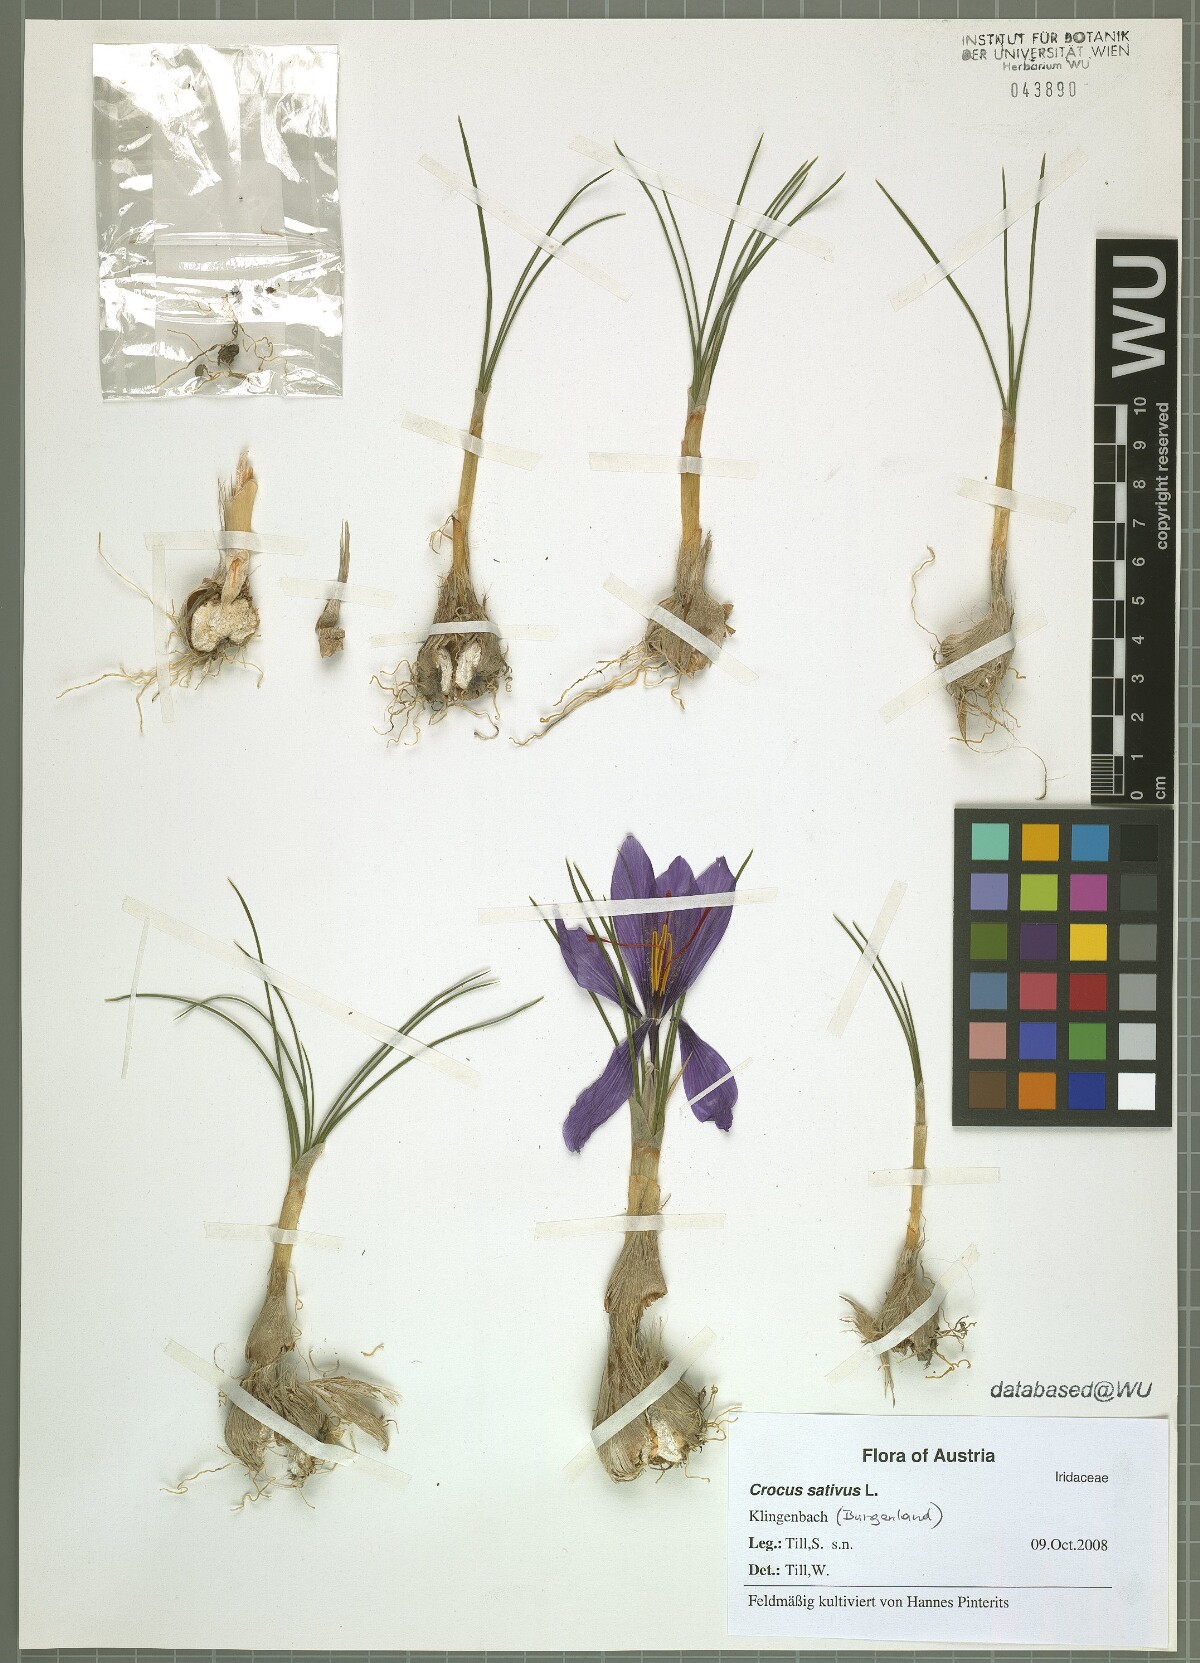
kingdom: Plantae
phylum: Tracheophyta
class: Liliopsida
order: Asparagales
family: Iridaceae
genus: Crocus
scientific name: Crocus sativus
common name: Saffron crocus
